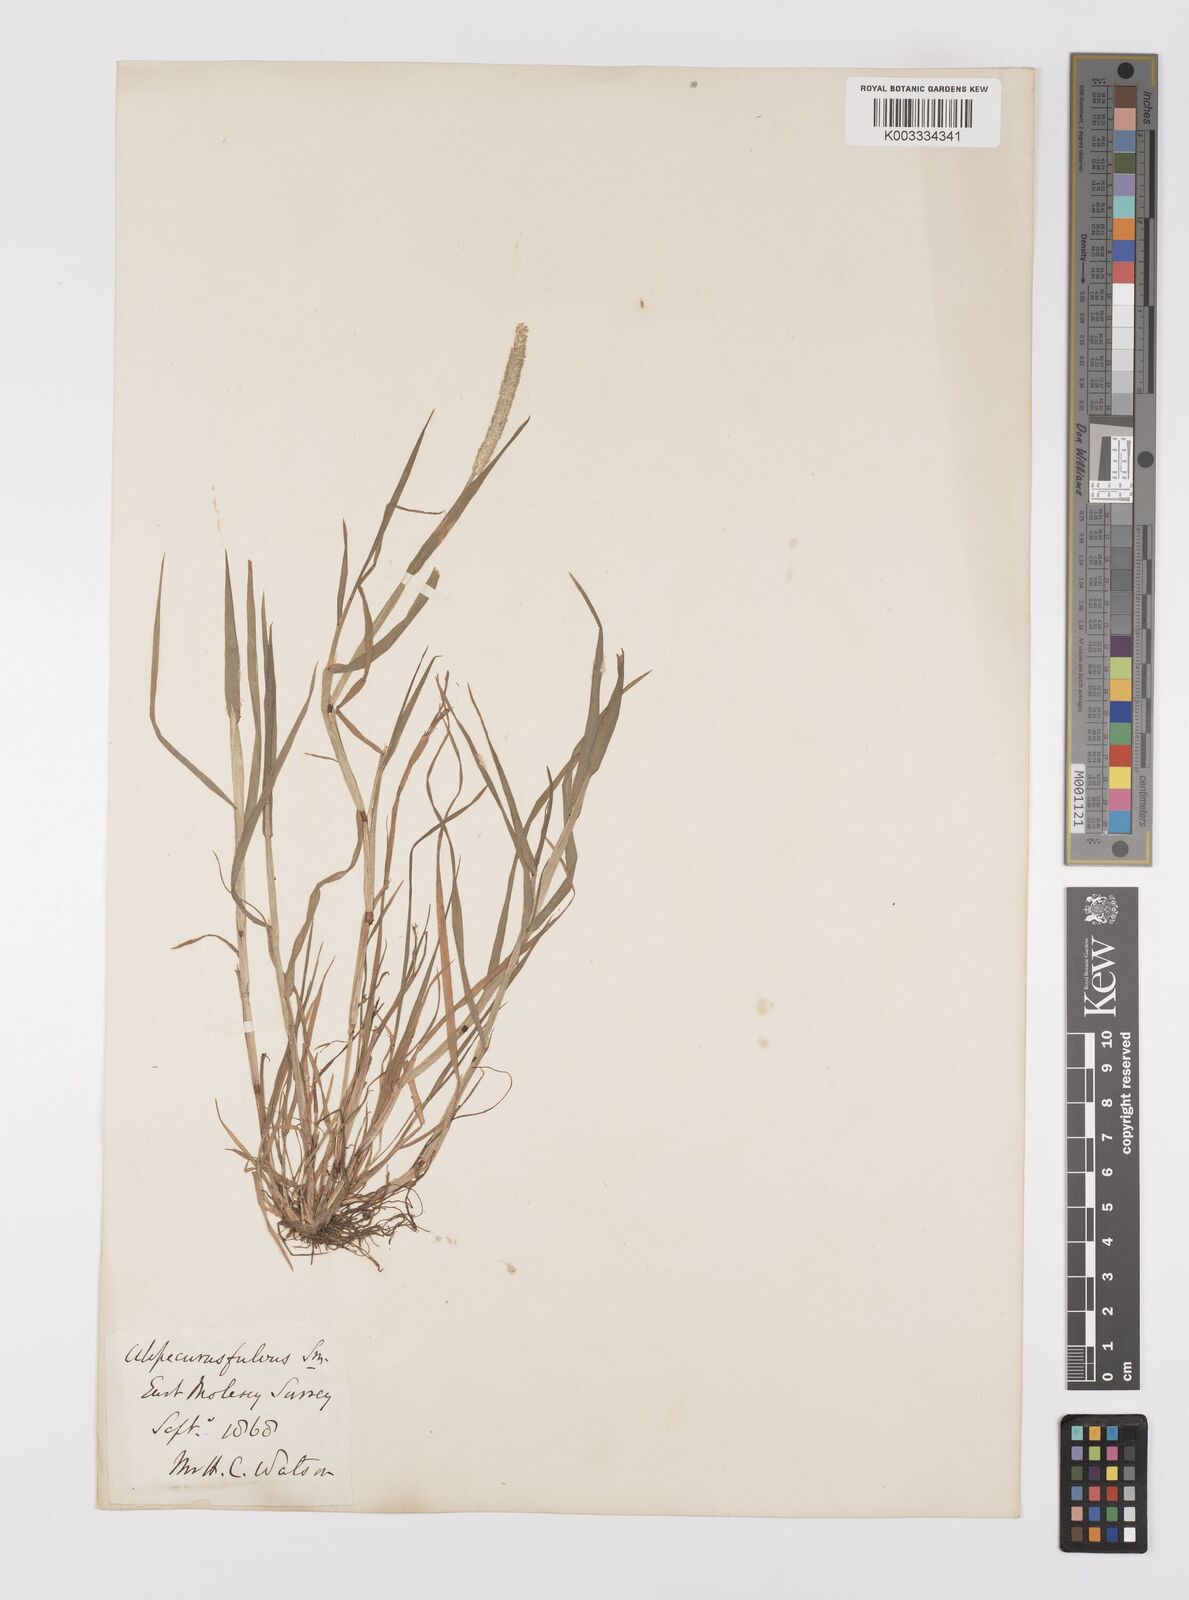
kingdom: Plantae
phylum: Tracheophyta
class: Liliopsida
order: Poales
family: Poaceae
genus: Alopecurus
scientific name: Alopecurus aequalis
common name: Orange foxtail
